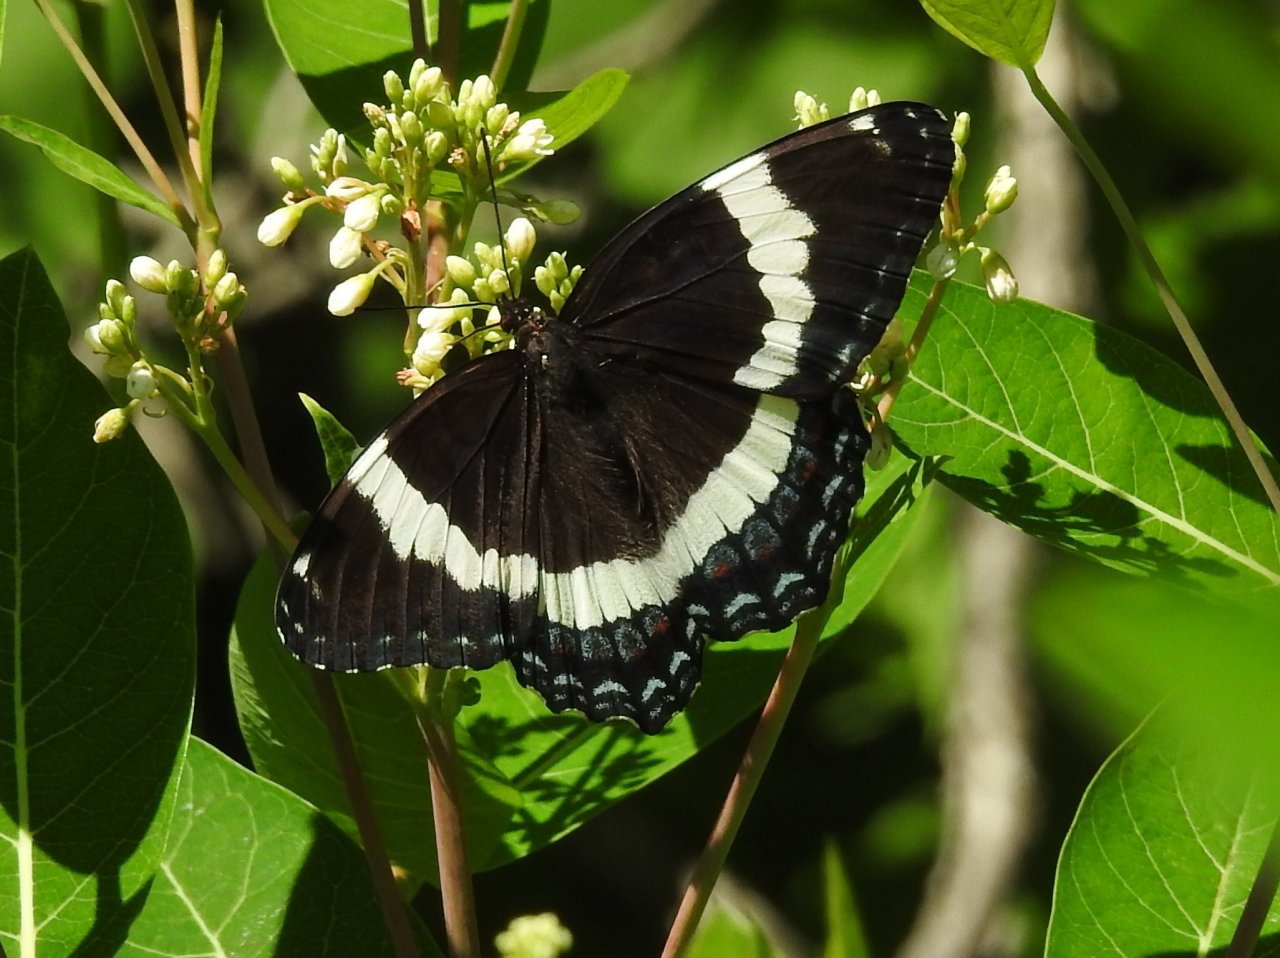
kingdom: Animalia
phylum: Arthropoda
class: Insecta
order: Lepidoptera
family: Nymphalidae
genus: Limenitis
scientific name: Limenitis arthemis
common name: Red-spotted Admiral
